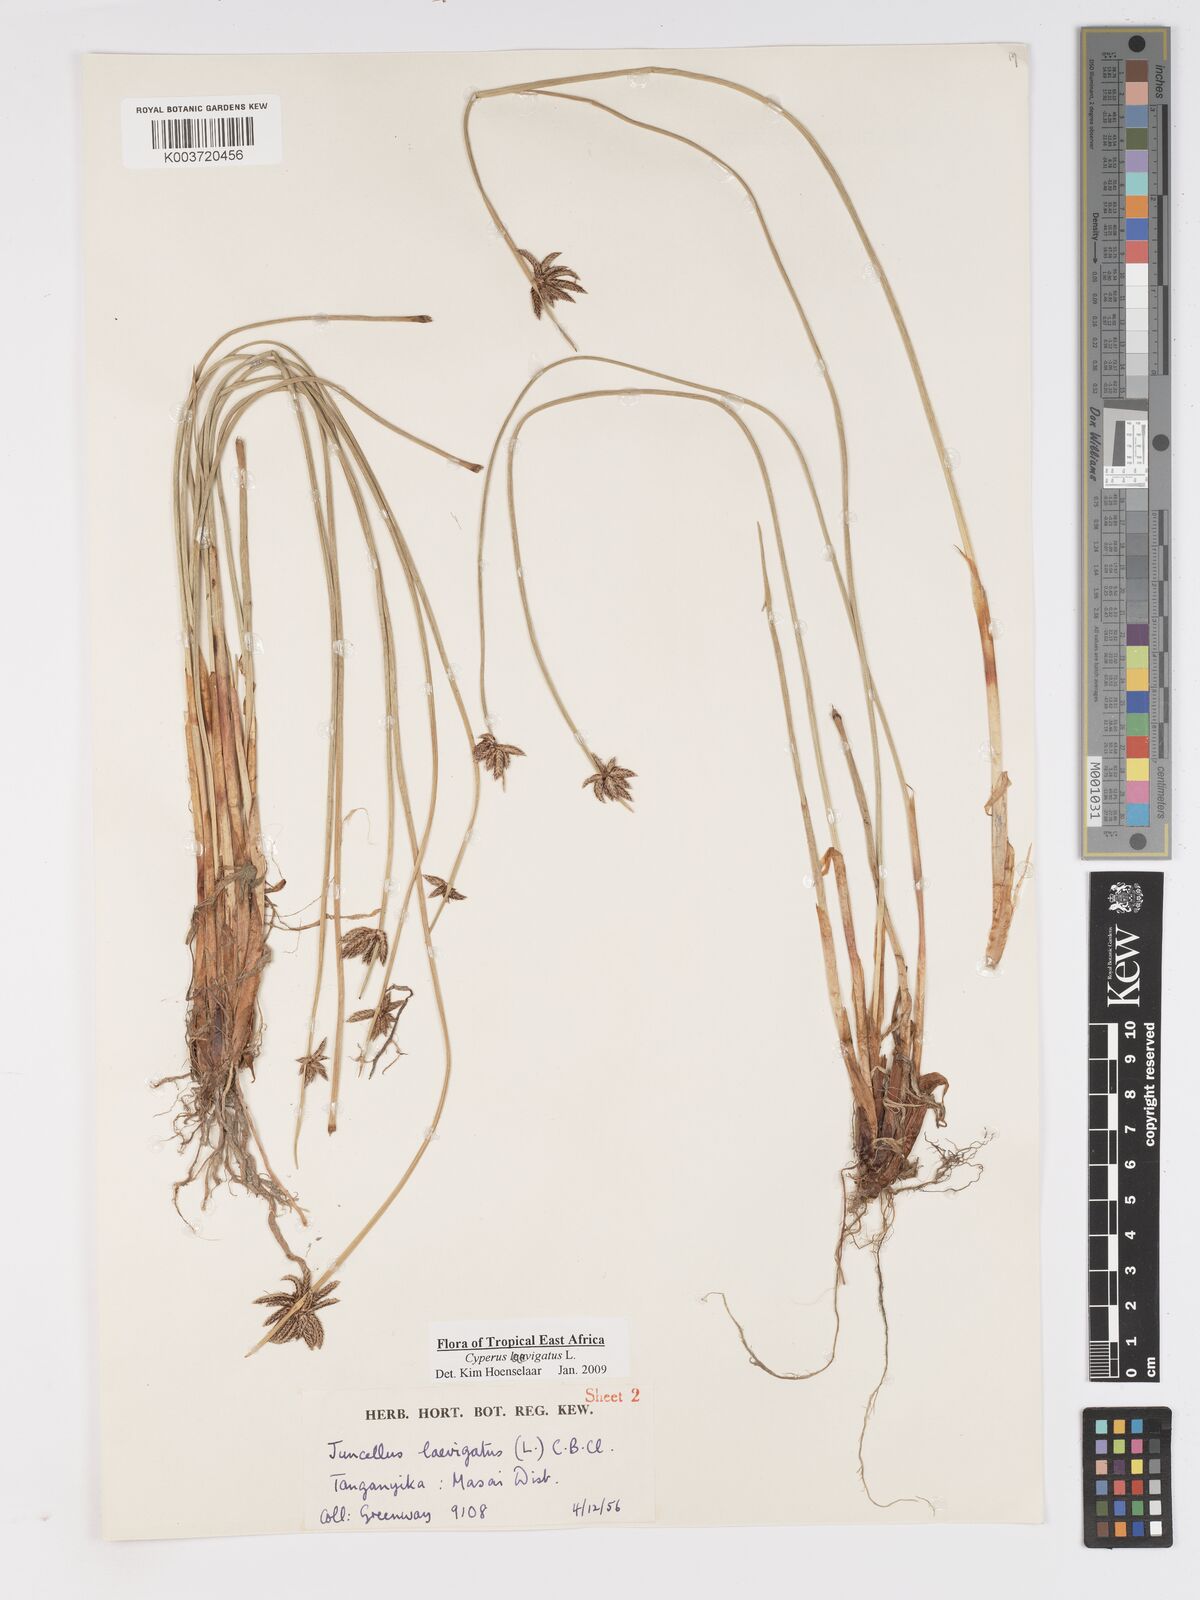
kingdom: Plantae
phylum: Tracheophyta
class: Liliopsida
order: Poales
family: Cyperaceae
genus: Cyperus
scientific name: Cyperus laevigatus
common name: Smooth flat sedge
